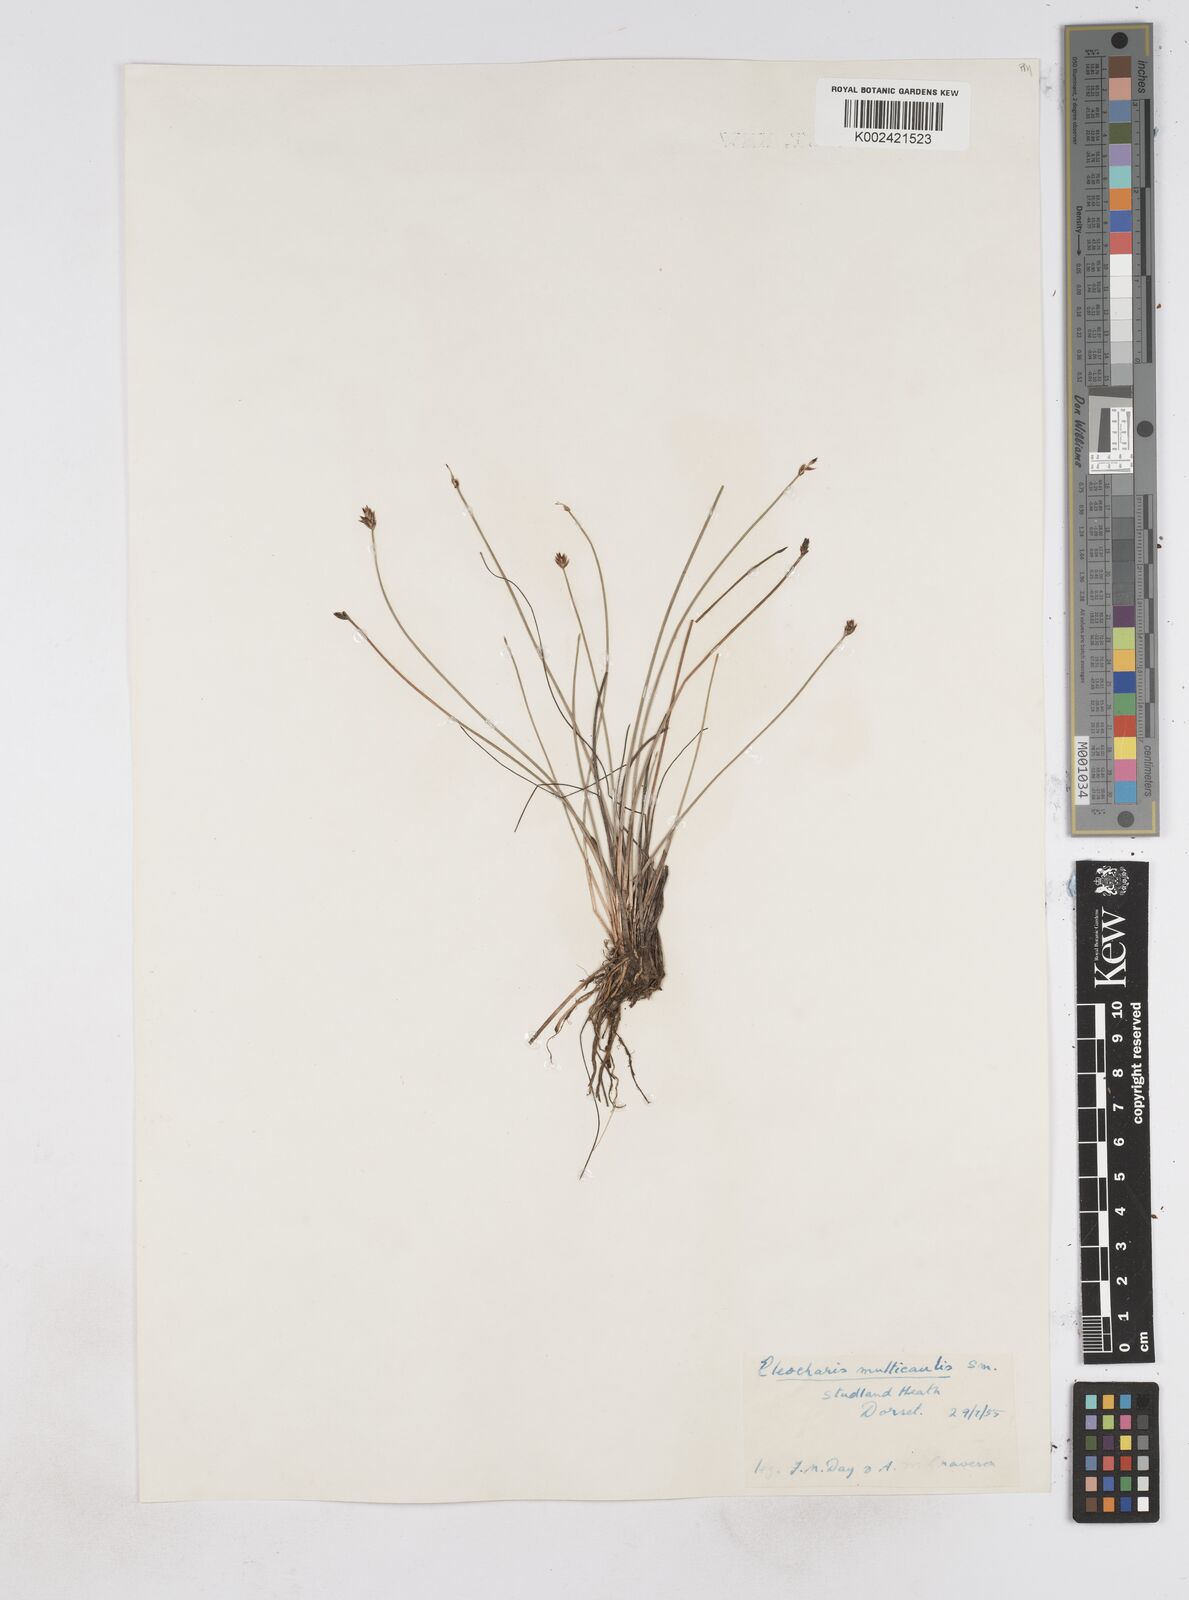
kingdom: Plantae
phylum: Tracheophyta
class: Liliopsida
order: Poales
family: Cyperaceae
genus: Eleocharis
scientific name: Eleocharis multicaulis
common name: Many-stalked spike-rush
